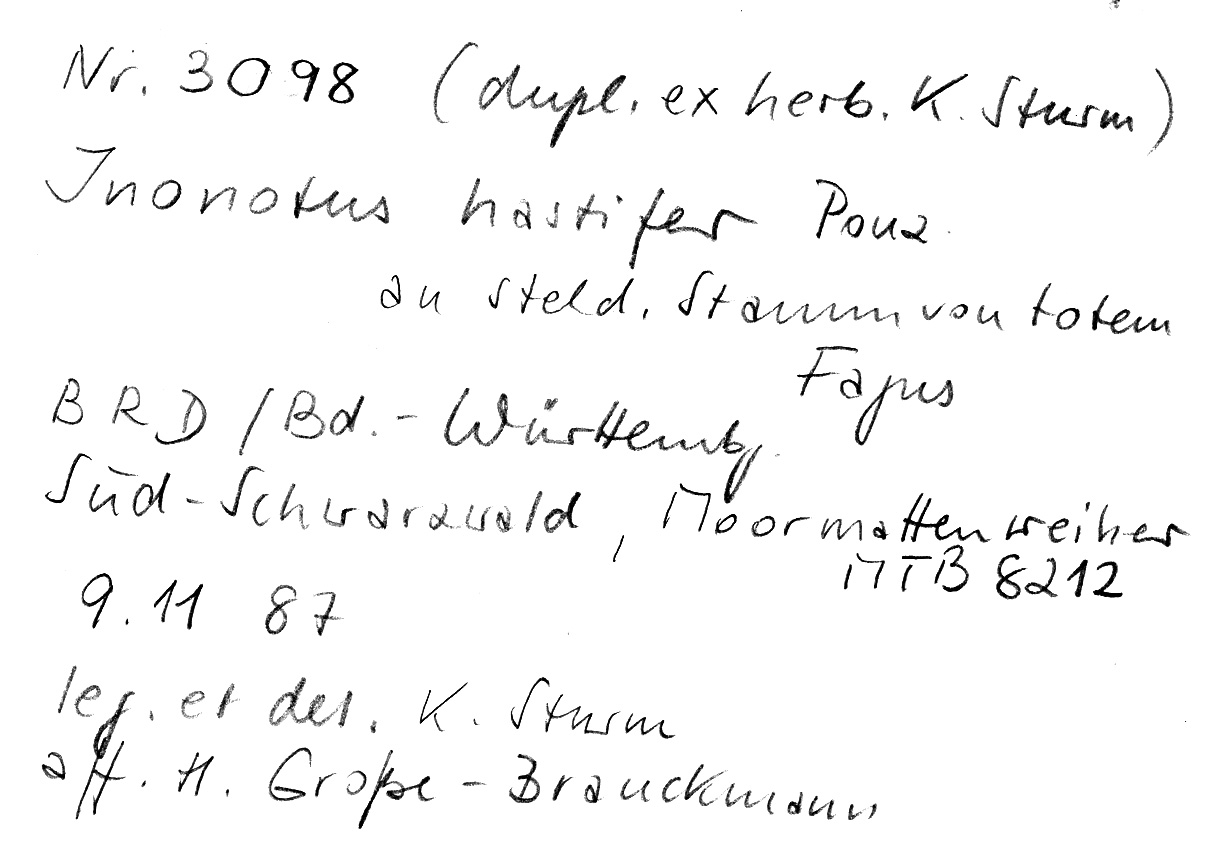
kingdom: Fungi
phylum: Basidiomycota
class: Agaricomycetes
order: Hymenochaetales
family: Hymenochaetaceae
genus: Inonotus
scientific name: Inonotus hastifer
